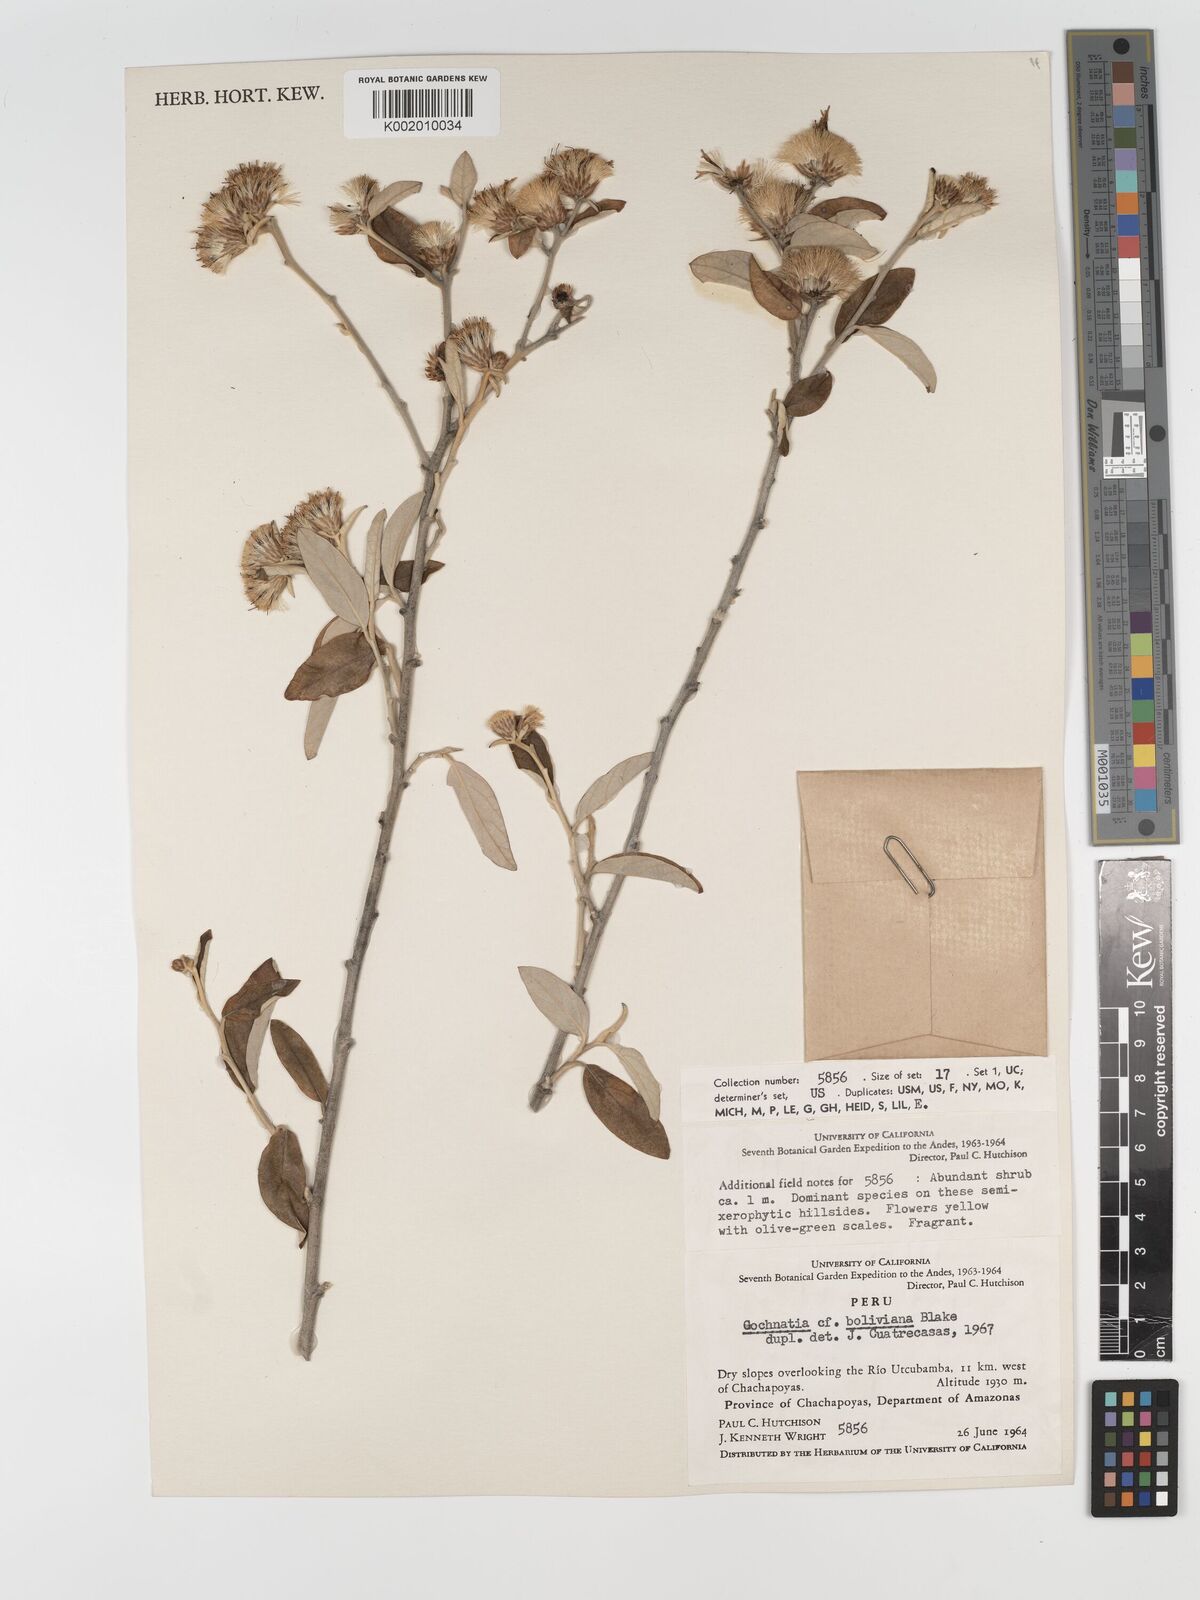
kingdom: Plantae
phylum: Tracheophyta
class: Magnoliopsida
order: Asterales
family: Asteraceae
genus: Gochnatia
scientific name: Gochnatia vernonioides
